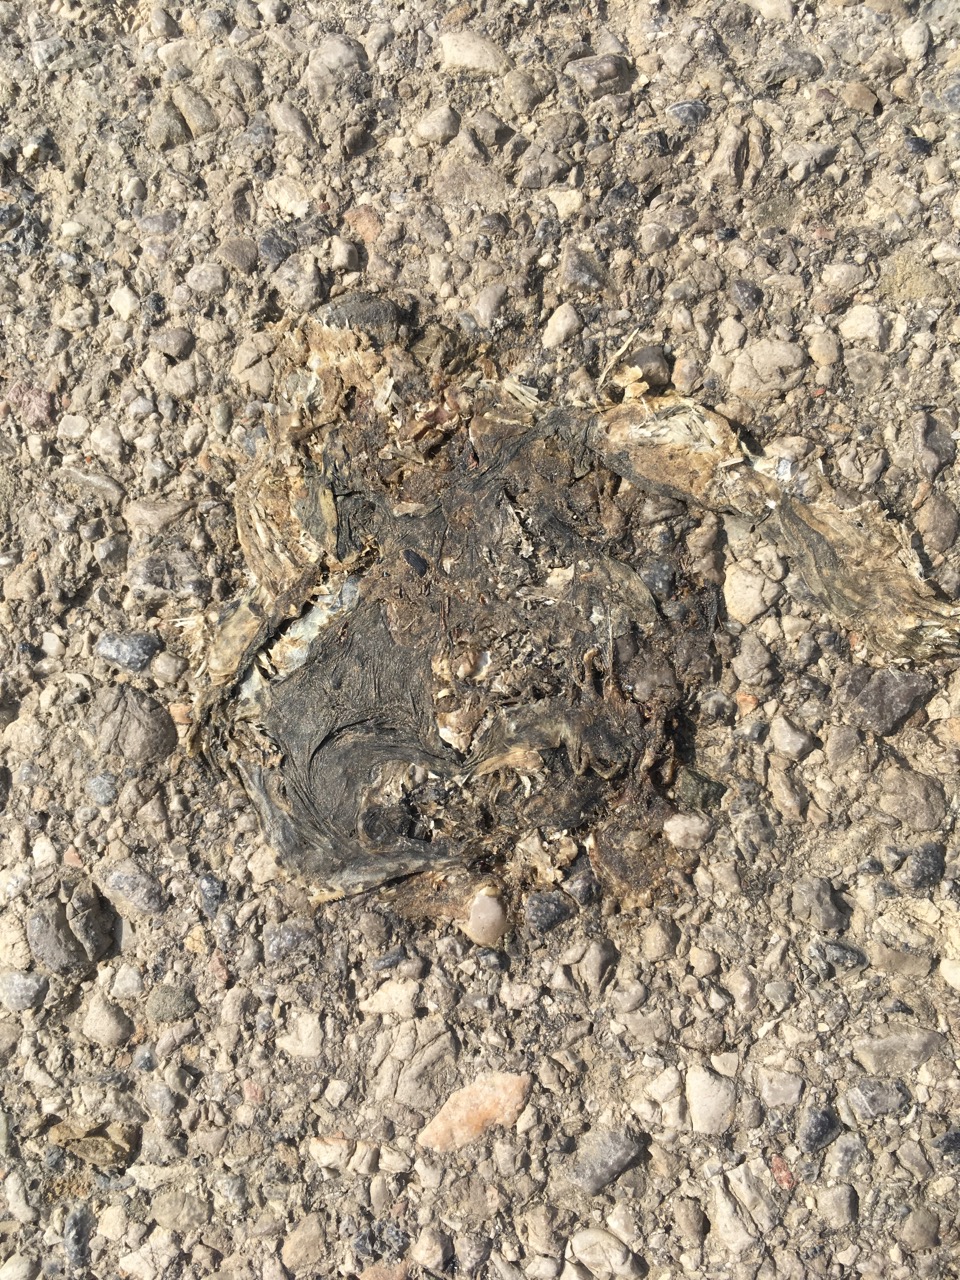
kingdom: Animalia
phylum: Chordata
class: Amphibia
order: Anura
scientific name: Anura
